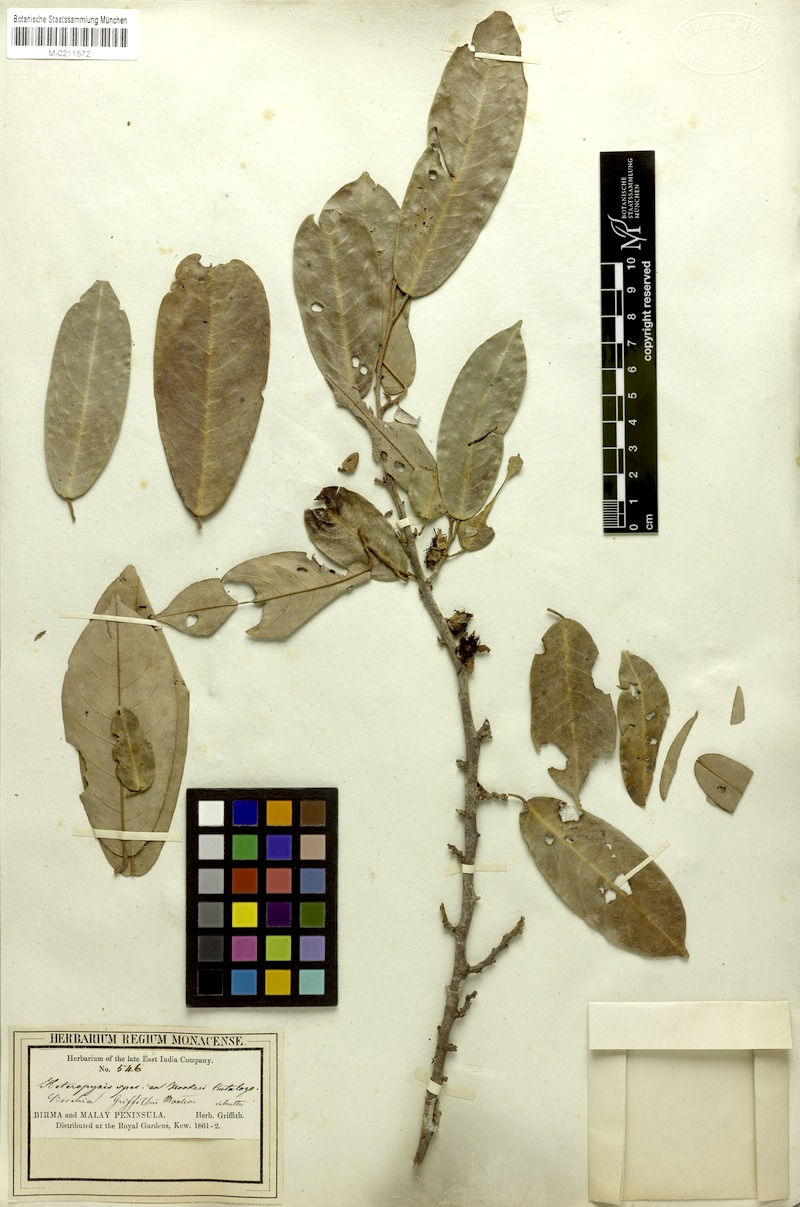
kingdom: Plantae
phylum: Tracheophyta
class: Magnoliopsida
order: Malvales
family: Malvaceae
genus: Boschia
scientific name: Boschia griffithii
